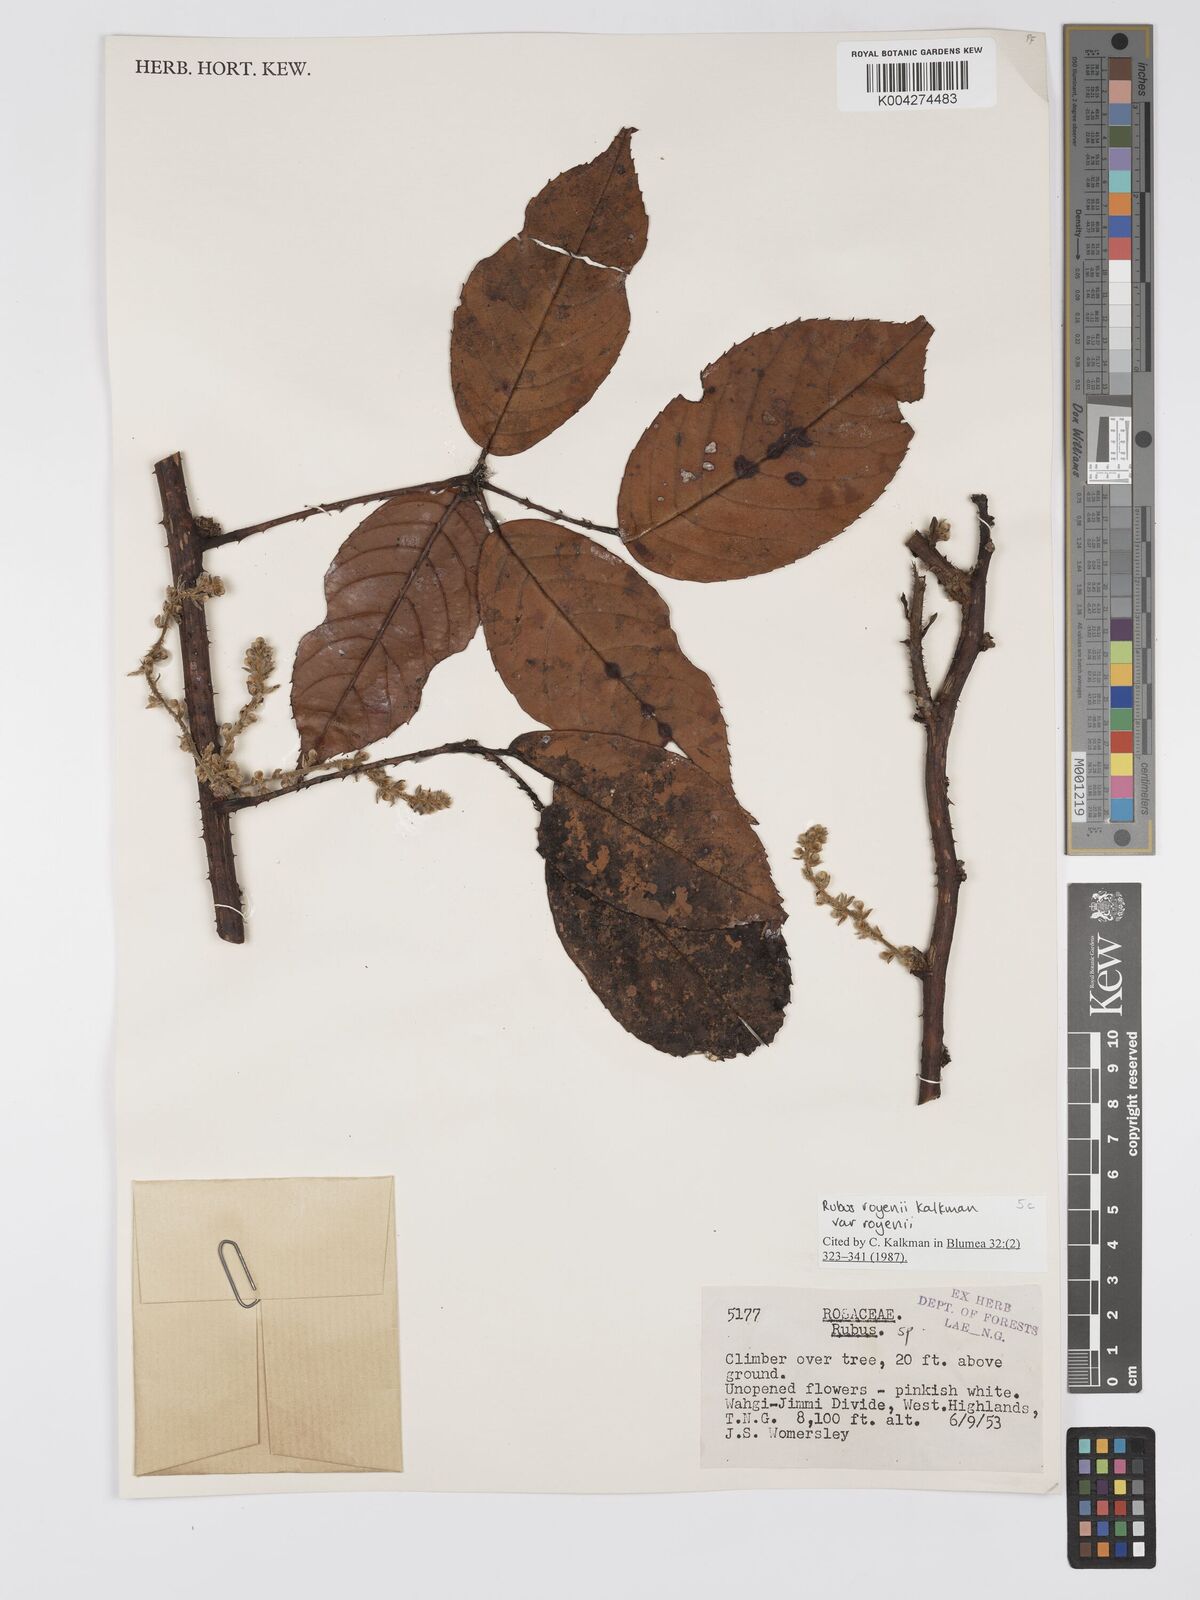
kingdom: Plantae
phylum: Tracheophyta
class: Magnoliopsida
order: Rosales
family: Rosaceae
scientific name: Rosaceae
